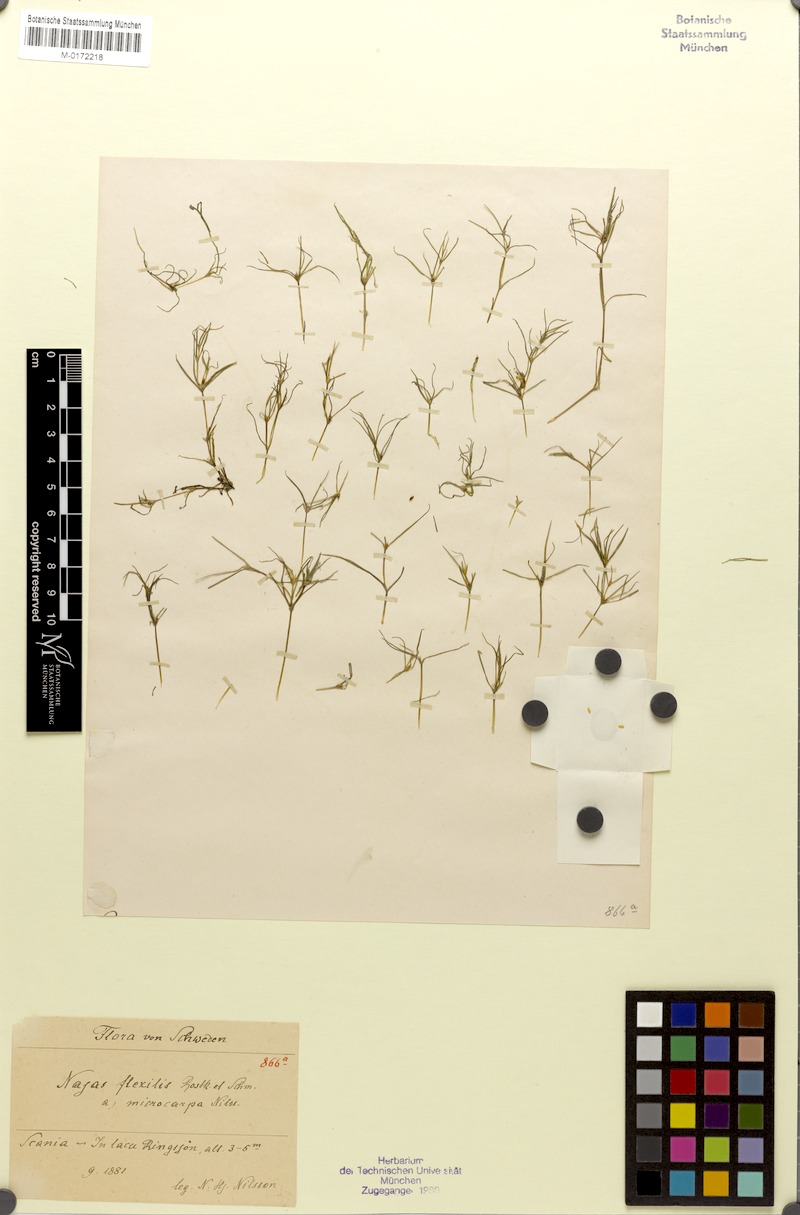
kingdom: Plantae
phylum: Tracheophyta
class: Liliopsida
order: Alismatales
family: Hydrocharitaceae
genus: Najas
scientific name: Najas flexilis
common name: Slender naiad
